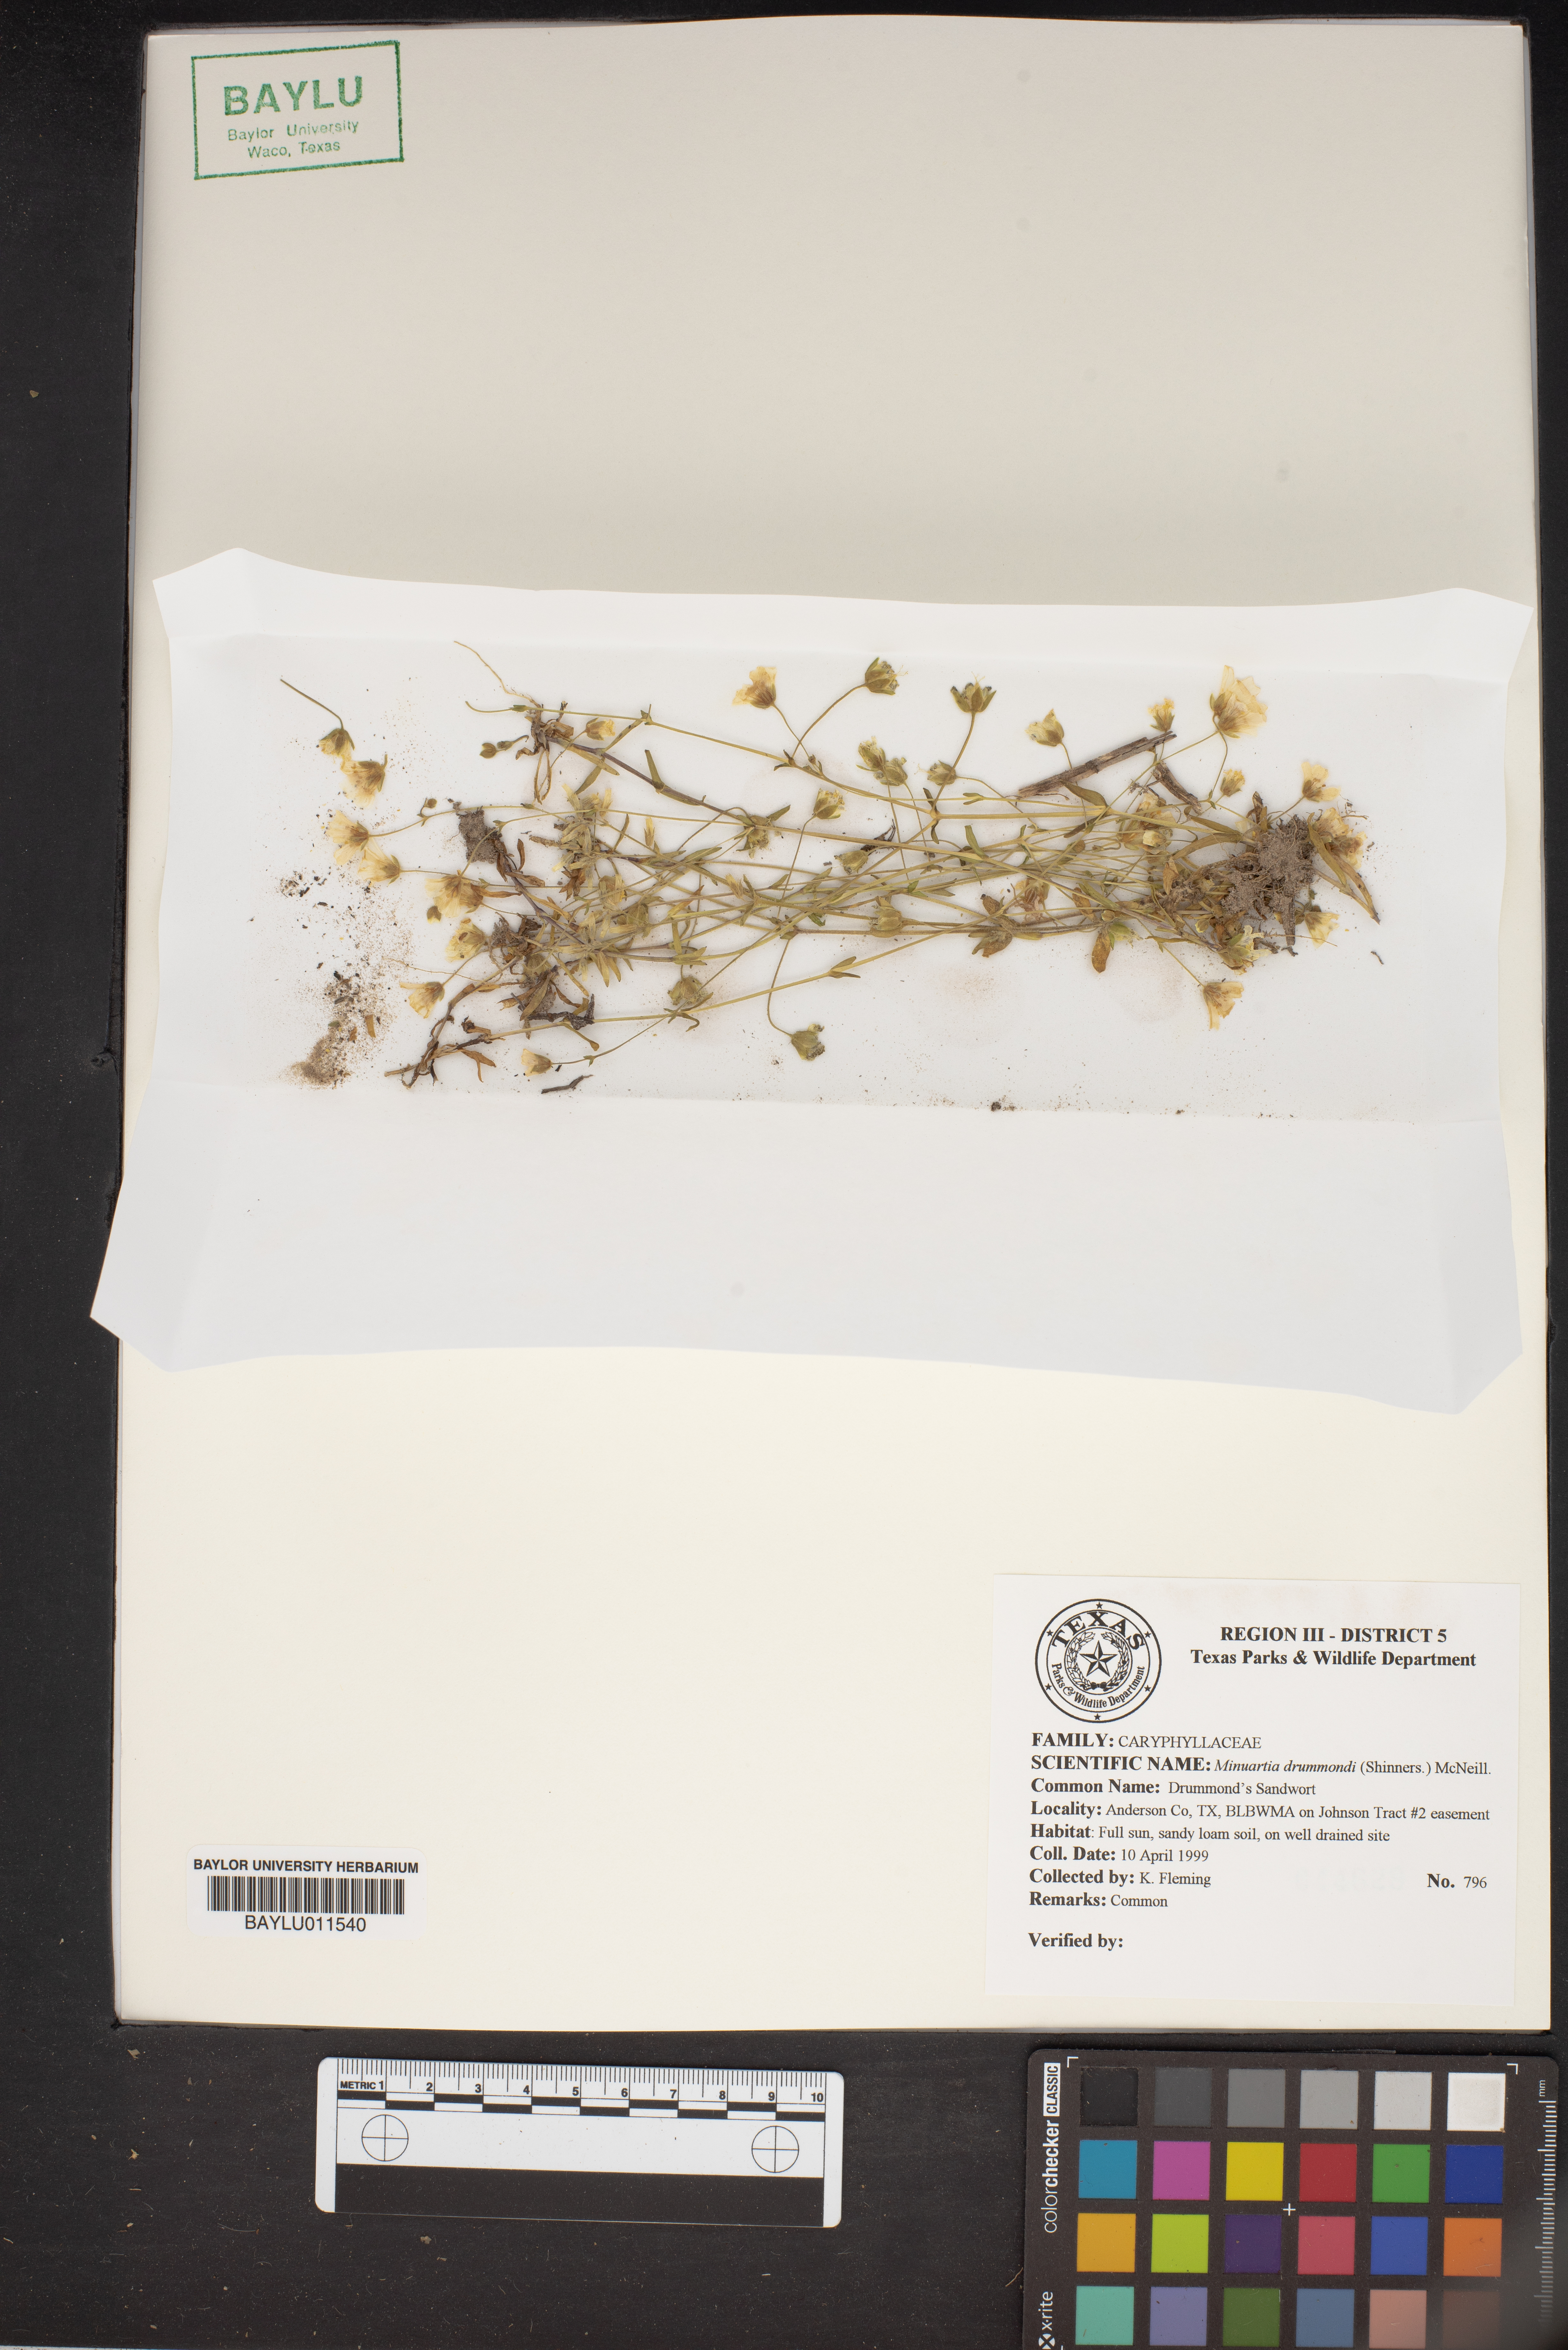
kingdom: Plantae
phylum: Tracheophyta
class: Magnoliopsida
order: Caryophyllales
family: Caryophyllaceae
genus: Geocarpon
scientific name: Geocarpon nuttallii
